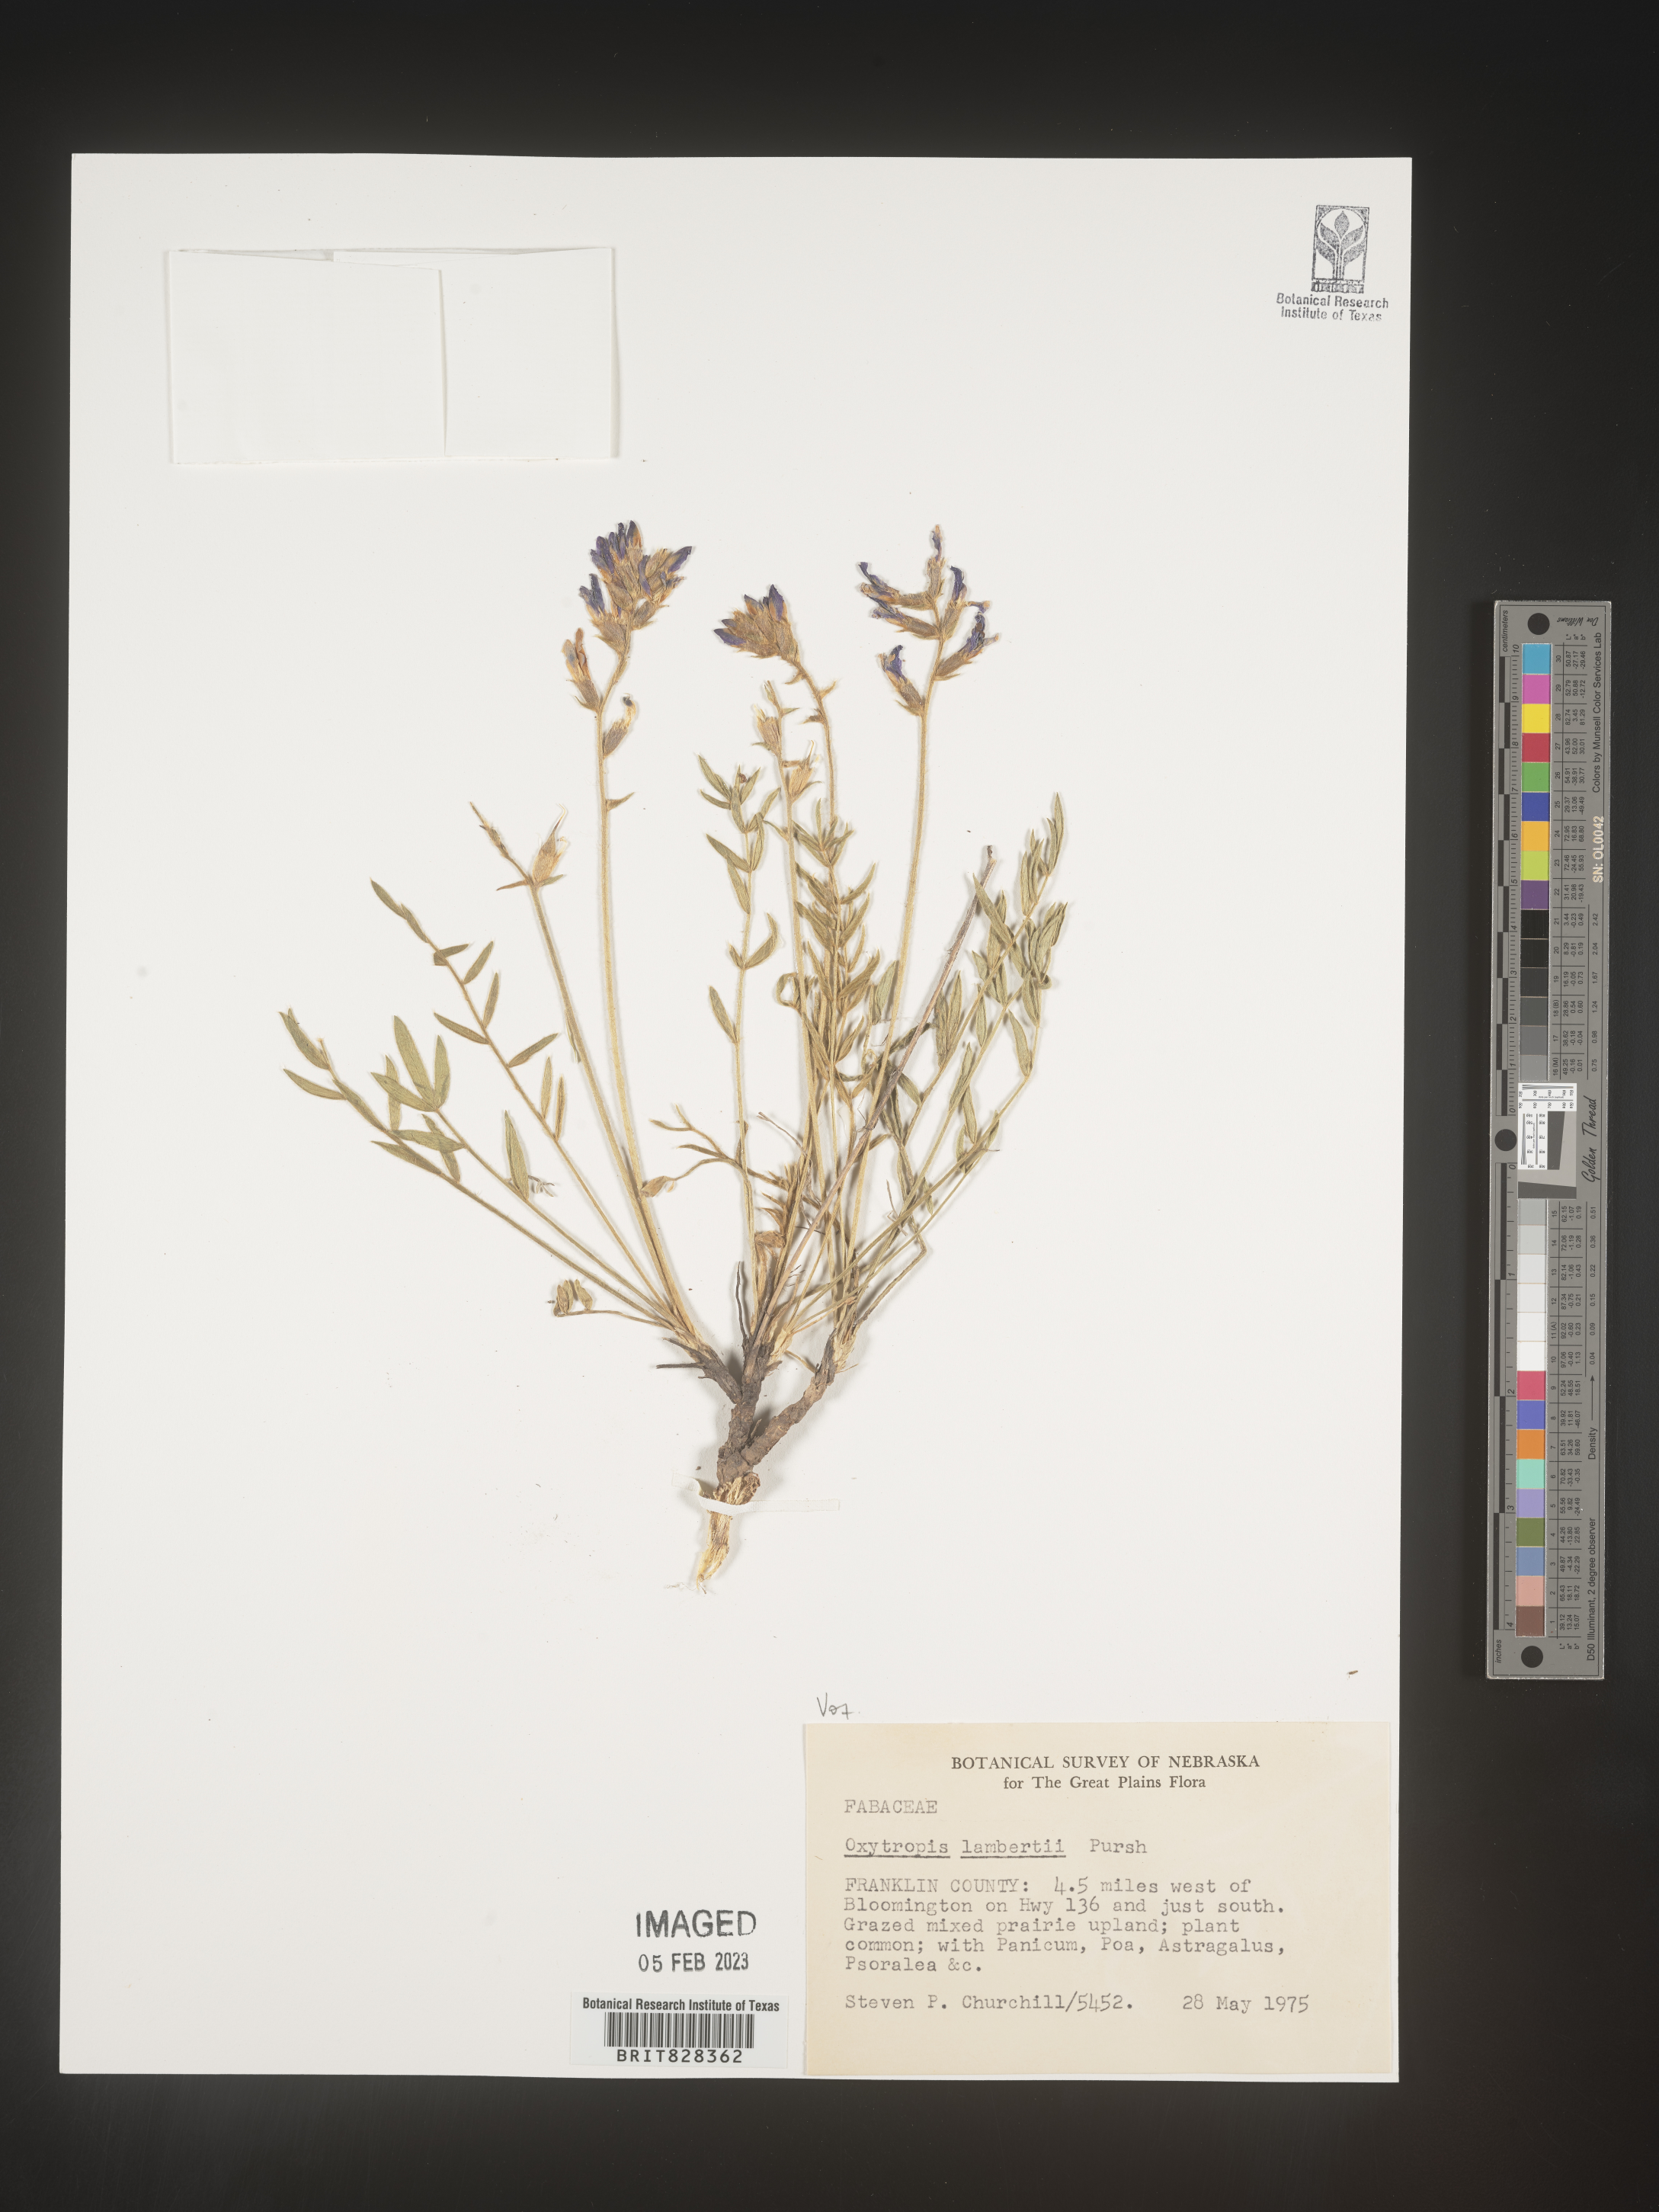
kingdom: Plantae
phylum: Tracheophyta
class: Magnoliopsida
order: Fabales
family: Fabaceae
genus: Oxytropis
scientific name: Oxytropis lambertii
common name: Purple locoweed
